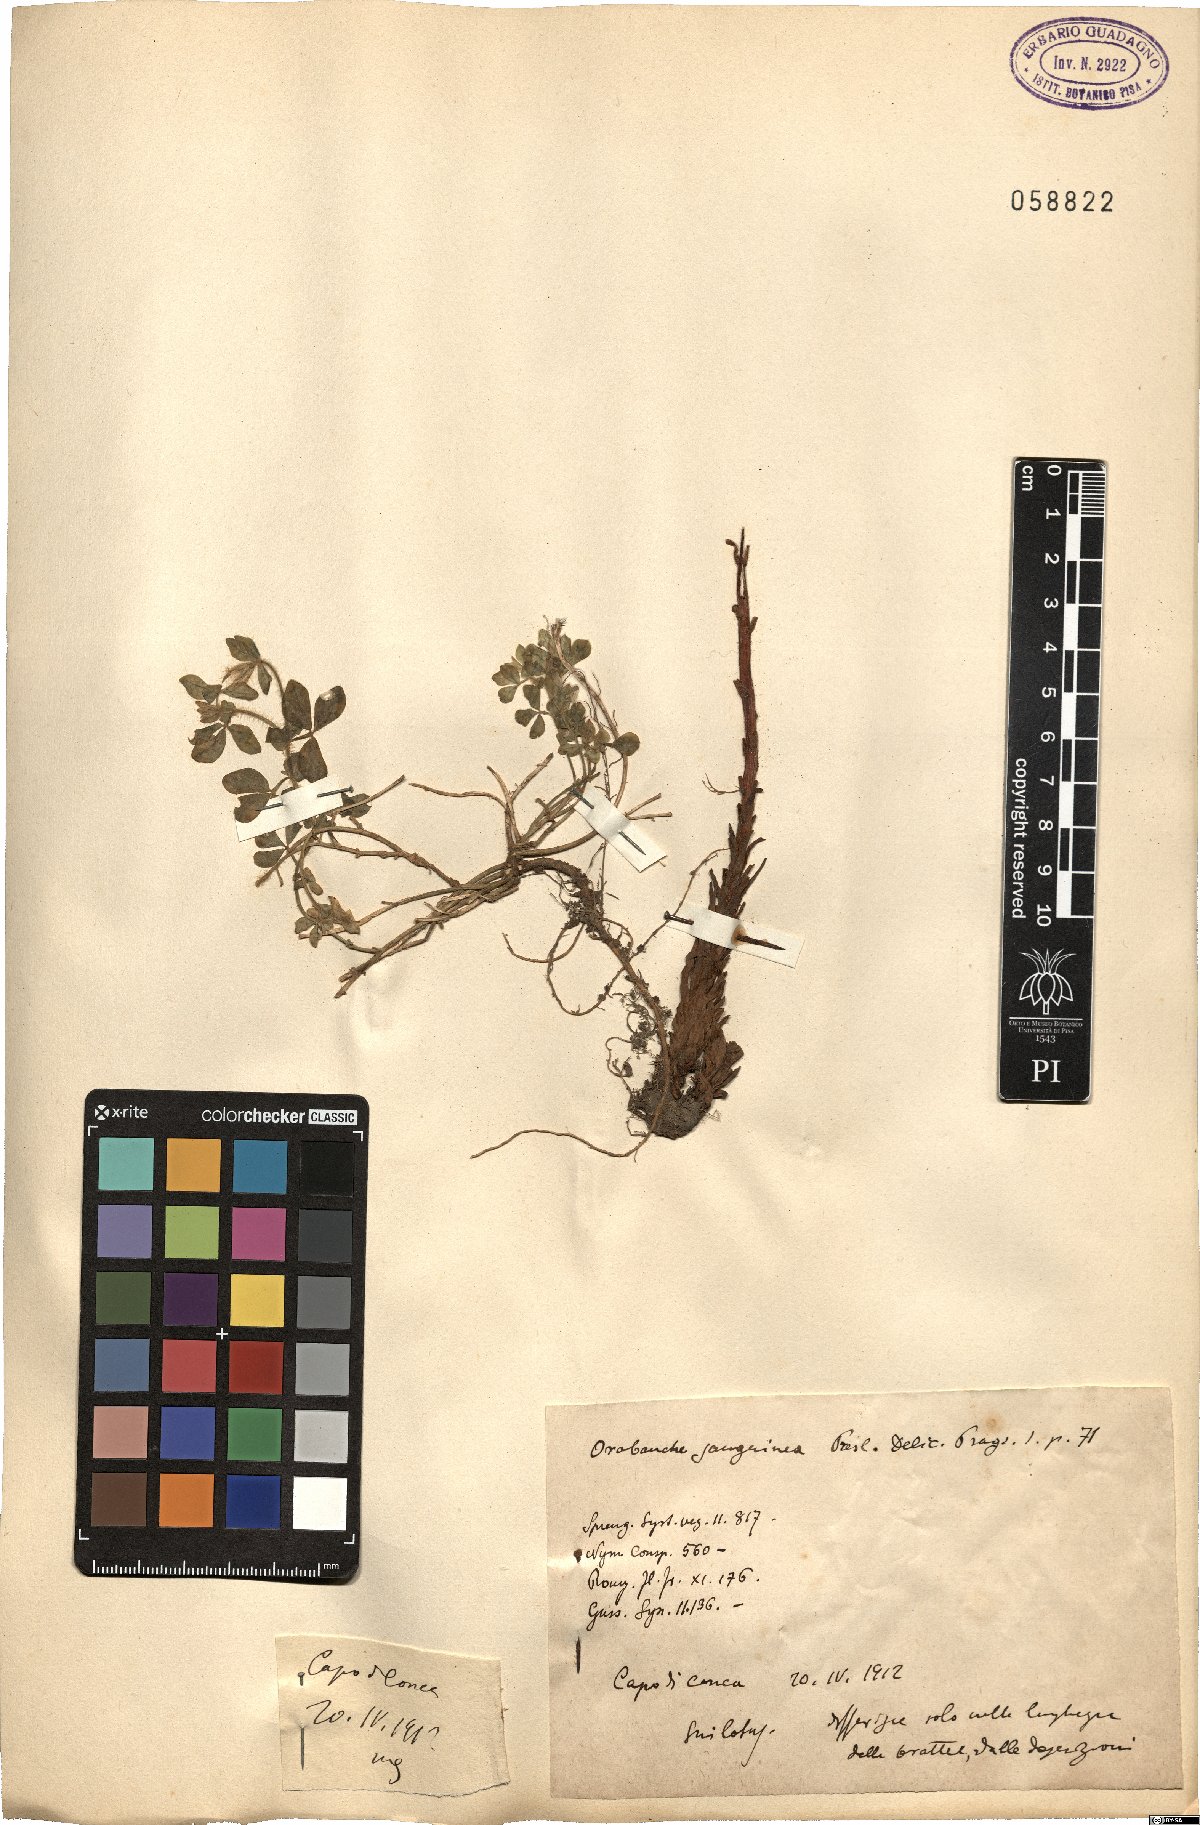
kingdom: Plantae
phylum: Tracheophyta
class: Magnoliopsida
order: Lamiales
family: Orobanchaceae
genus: Orobanche
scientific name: Orobanche sanguinea
